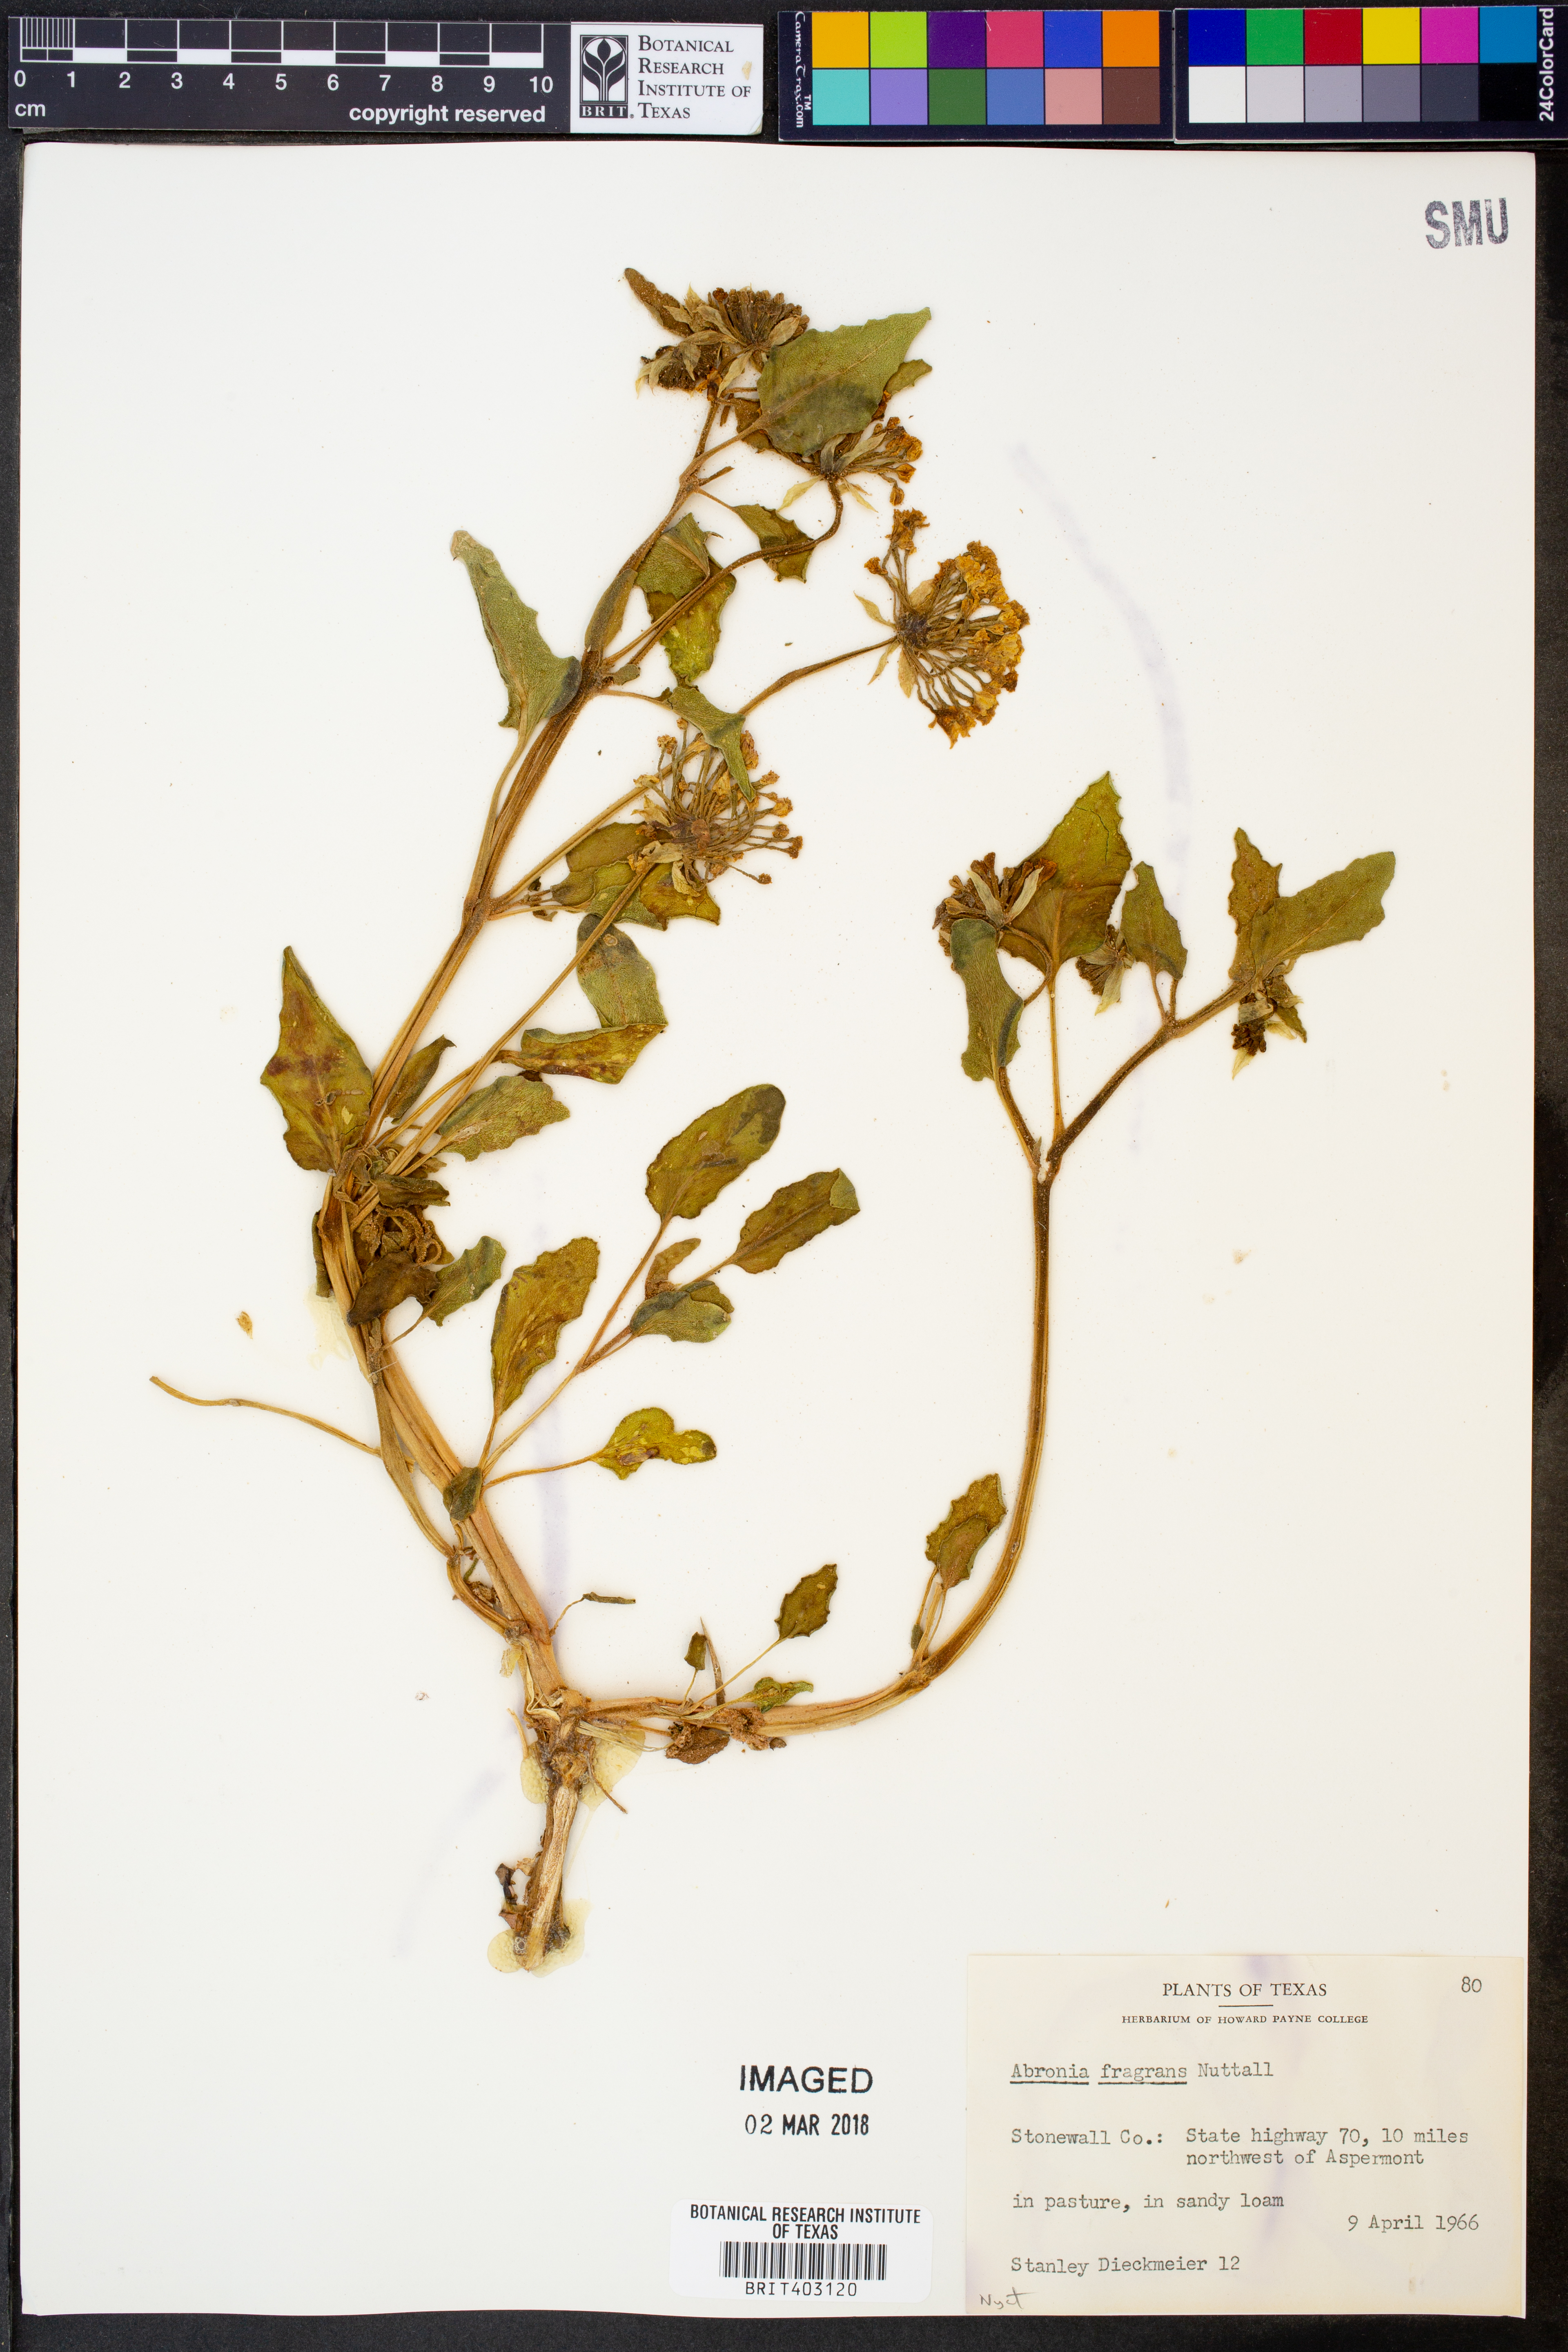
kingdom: Plantae
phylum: Tracheophyta
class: Magnoliopsida
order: Caryophyllales
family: Nyctaginaceae
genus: Abronia
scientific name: Abronia fragrans
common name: Fragrant sand-verbena
